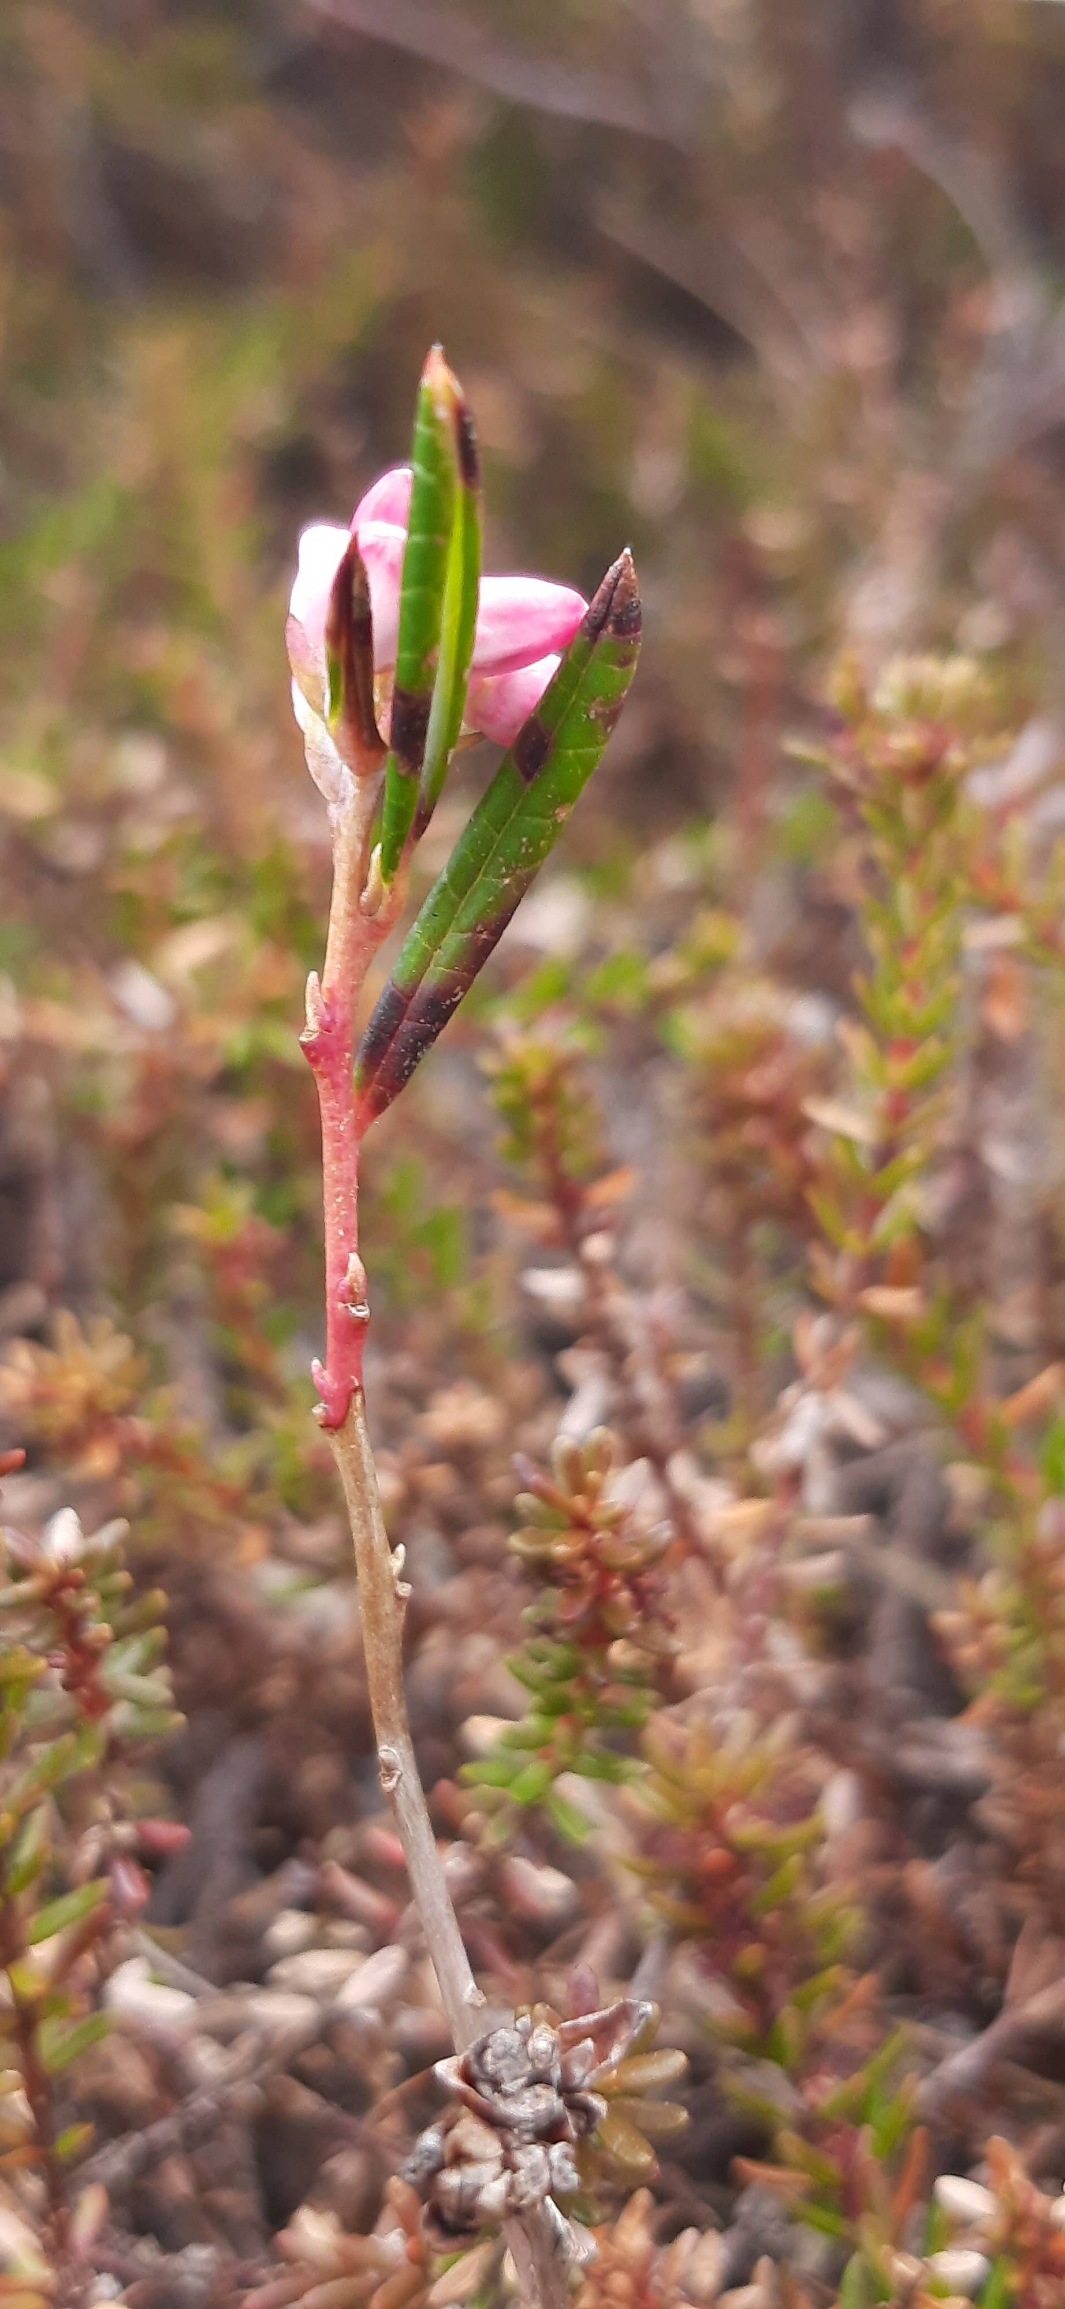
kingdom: Plantae
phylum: Tracheophyta
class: Magnoliopsida
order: Ericales
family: Ericaceae
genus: Andromeda
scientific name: Andromeda polifolia
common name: Rosmarinlyng
